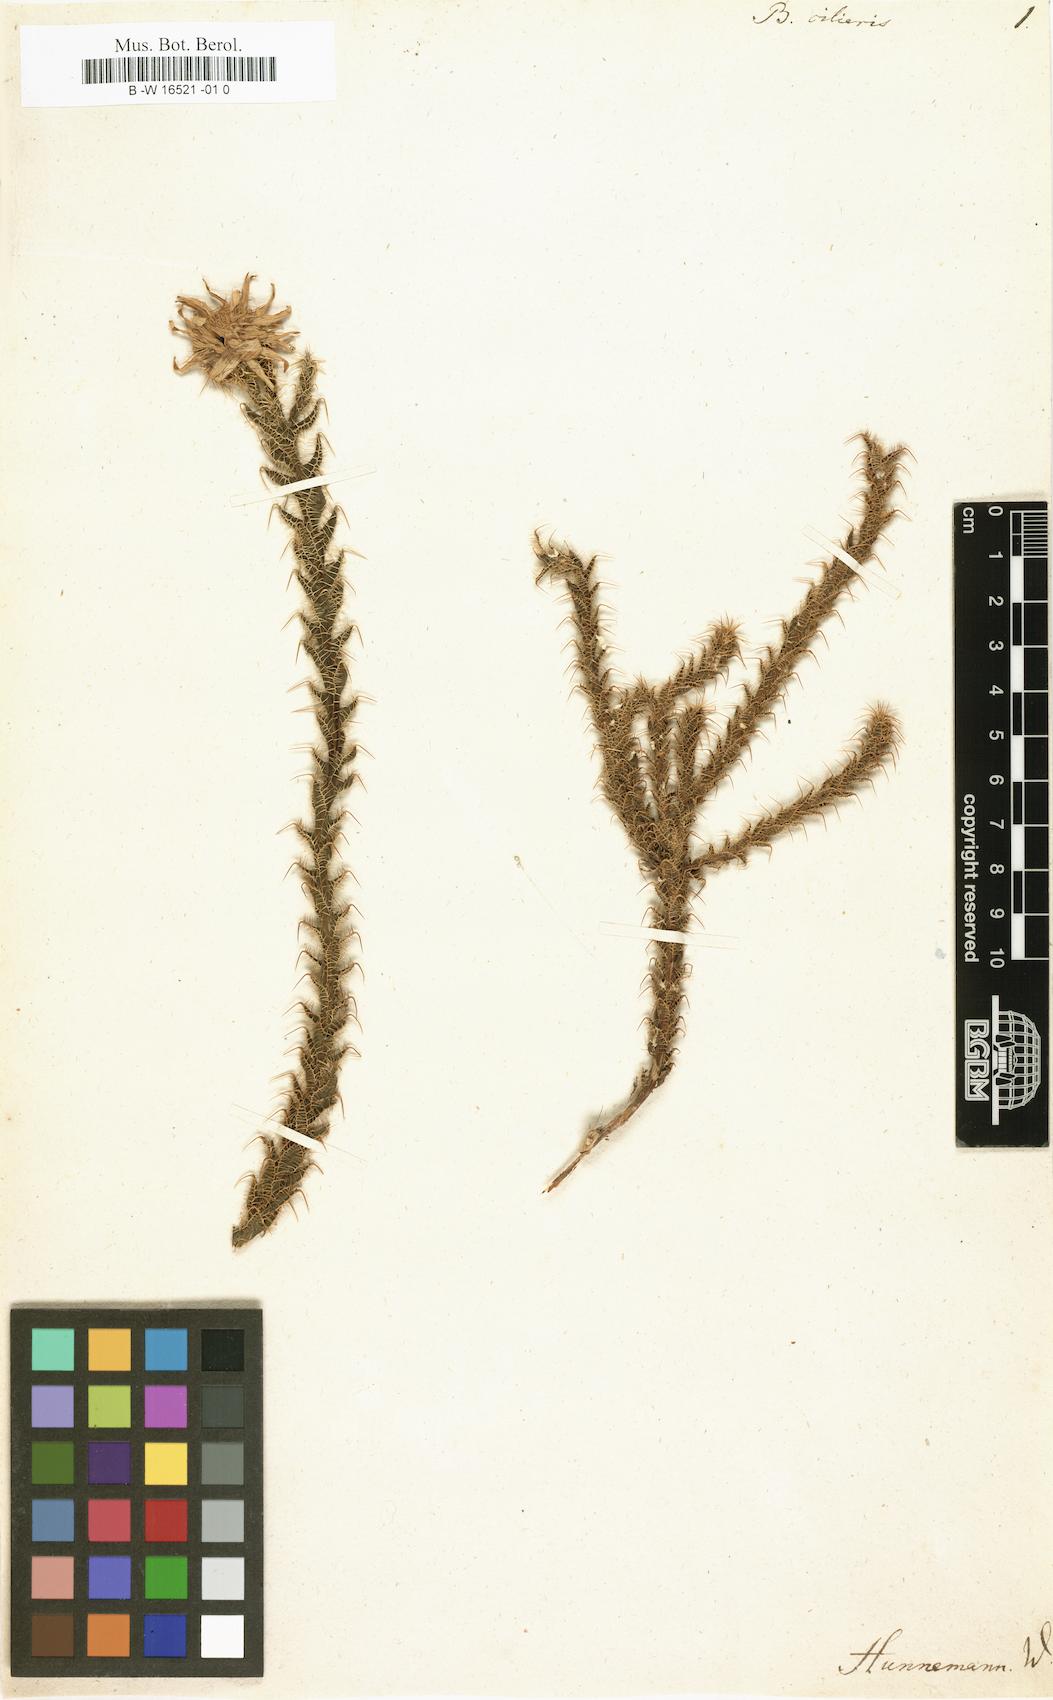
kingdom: Plantae
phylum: Tracheophyta
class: Magnoliopsida
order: Asterales
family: Asteraceae
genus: Cullumia
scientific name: Cullumia ciliaris
